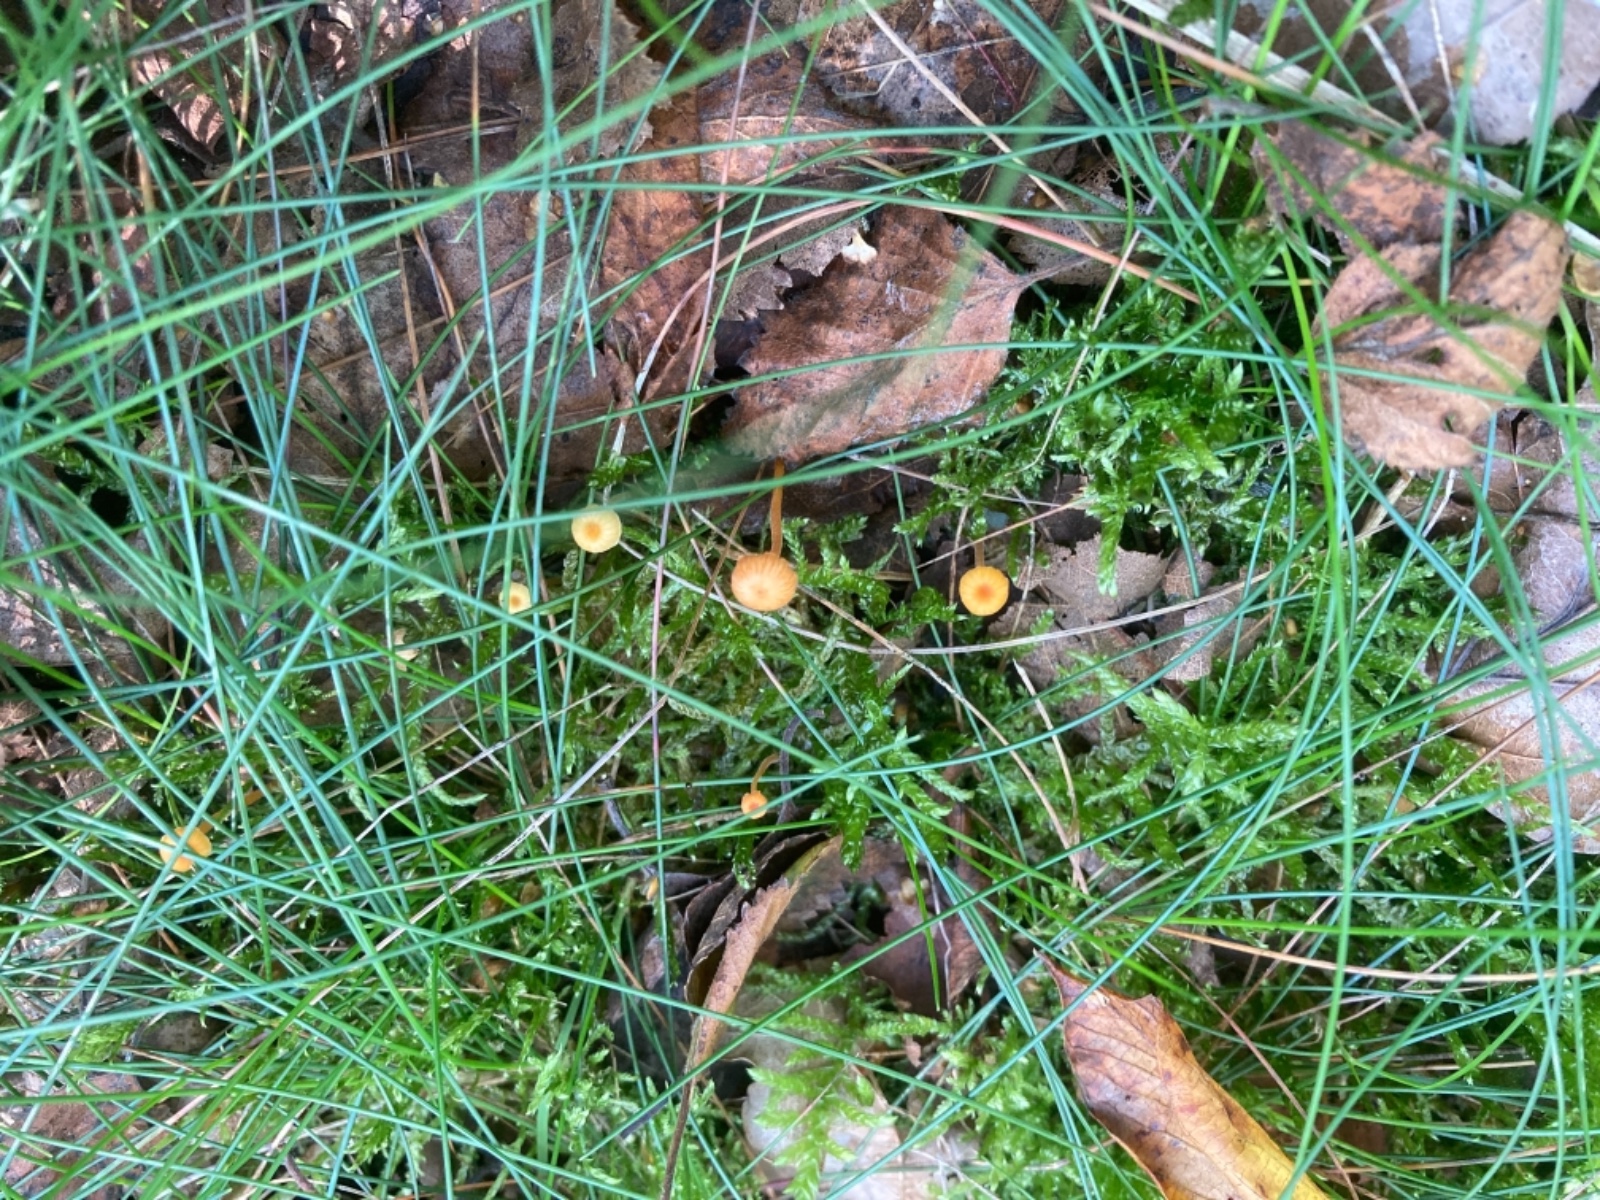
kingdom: Fungi
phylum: Basidiomycota
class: Agaricomycetes
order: Hymenochaetales
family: Rickenellaceae
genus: Rickenella
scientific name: Rickenella fibula
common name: orange mosnavlehat
